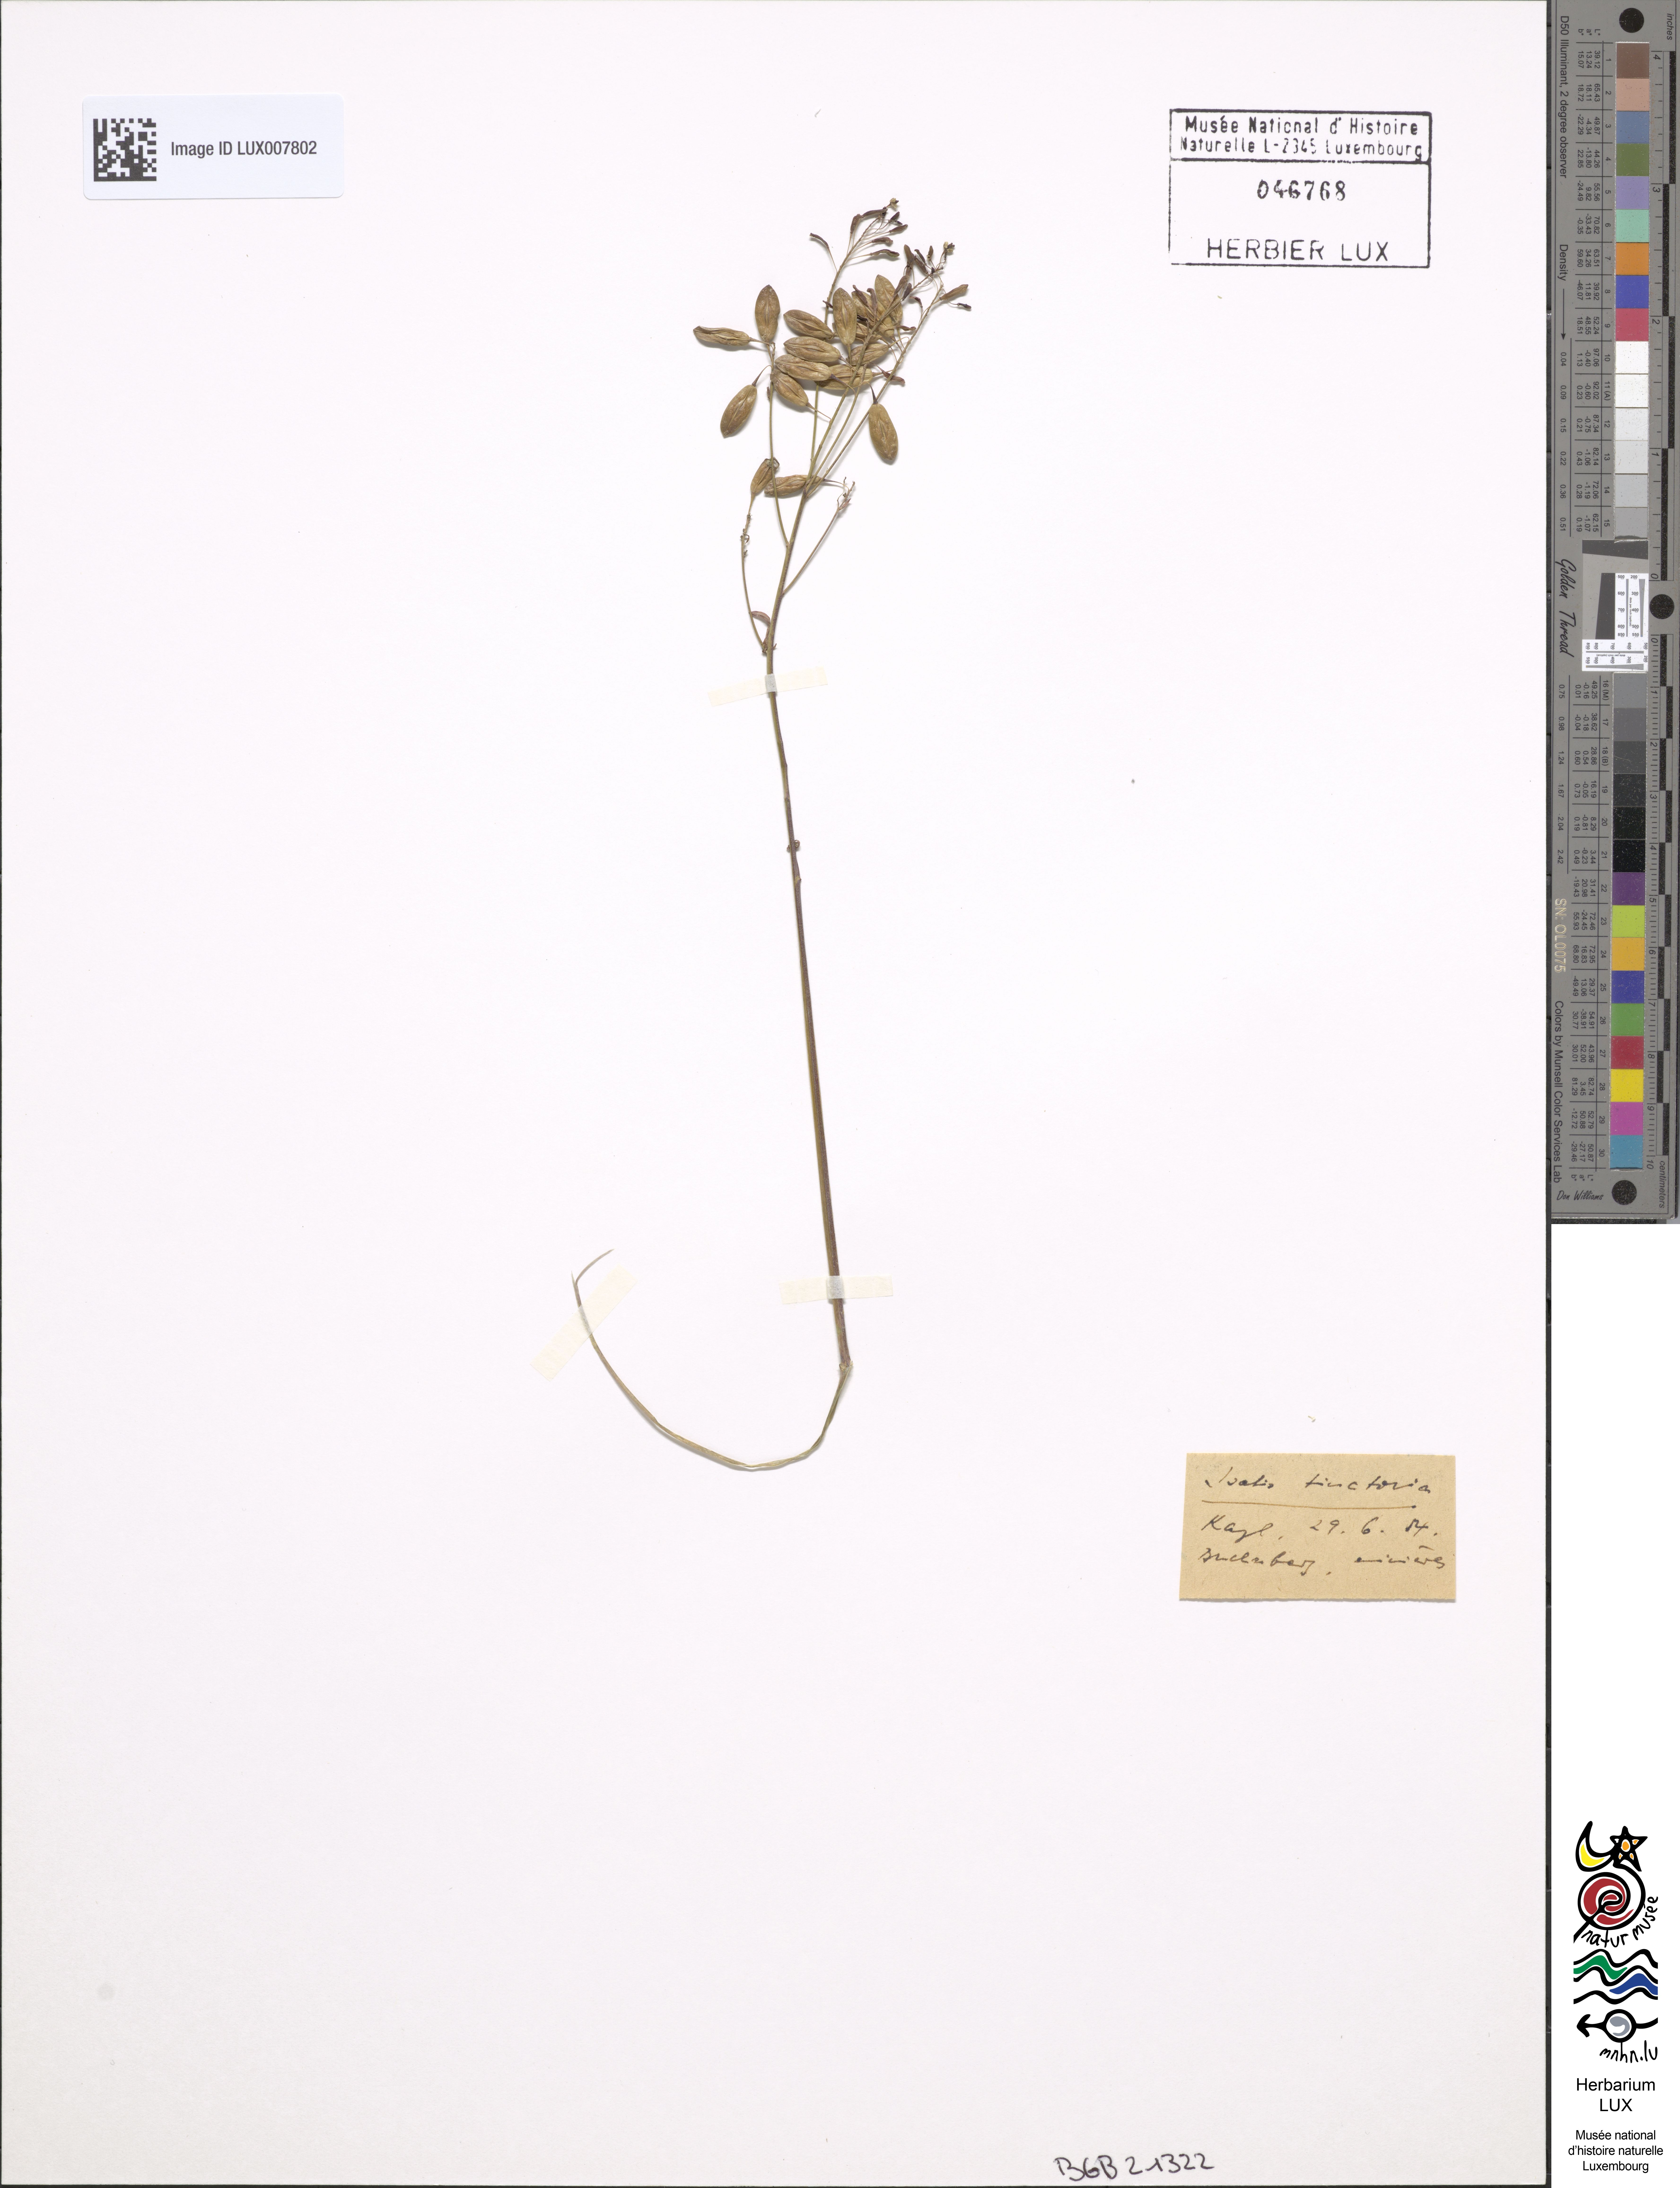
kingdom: Plantae
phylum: Tracheophyta
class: Magnoliopsida
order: Brassicales
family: Brassicaceae
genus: Isatis
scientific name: Isatis tinctoria
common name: Woad
